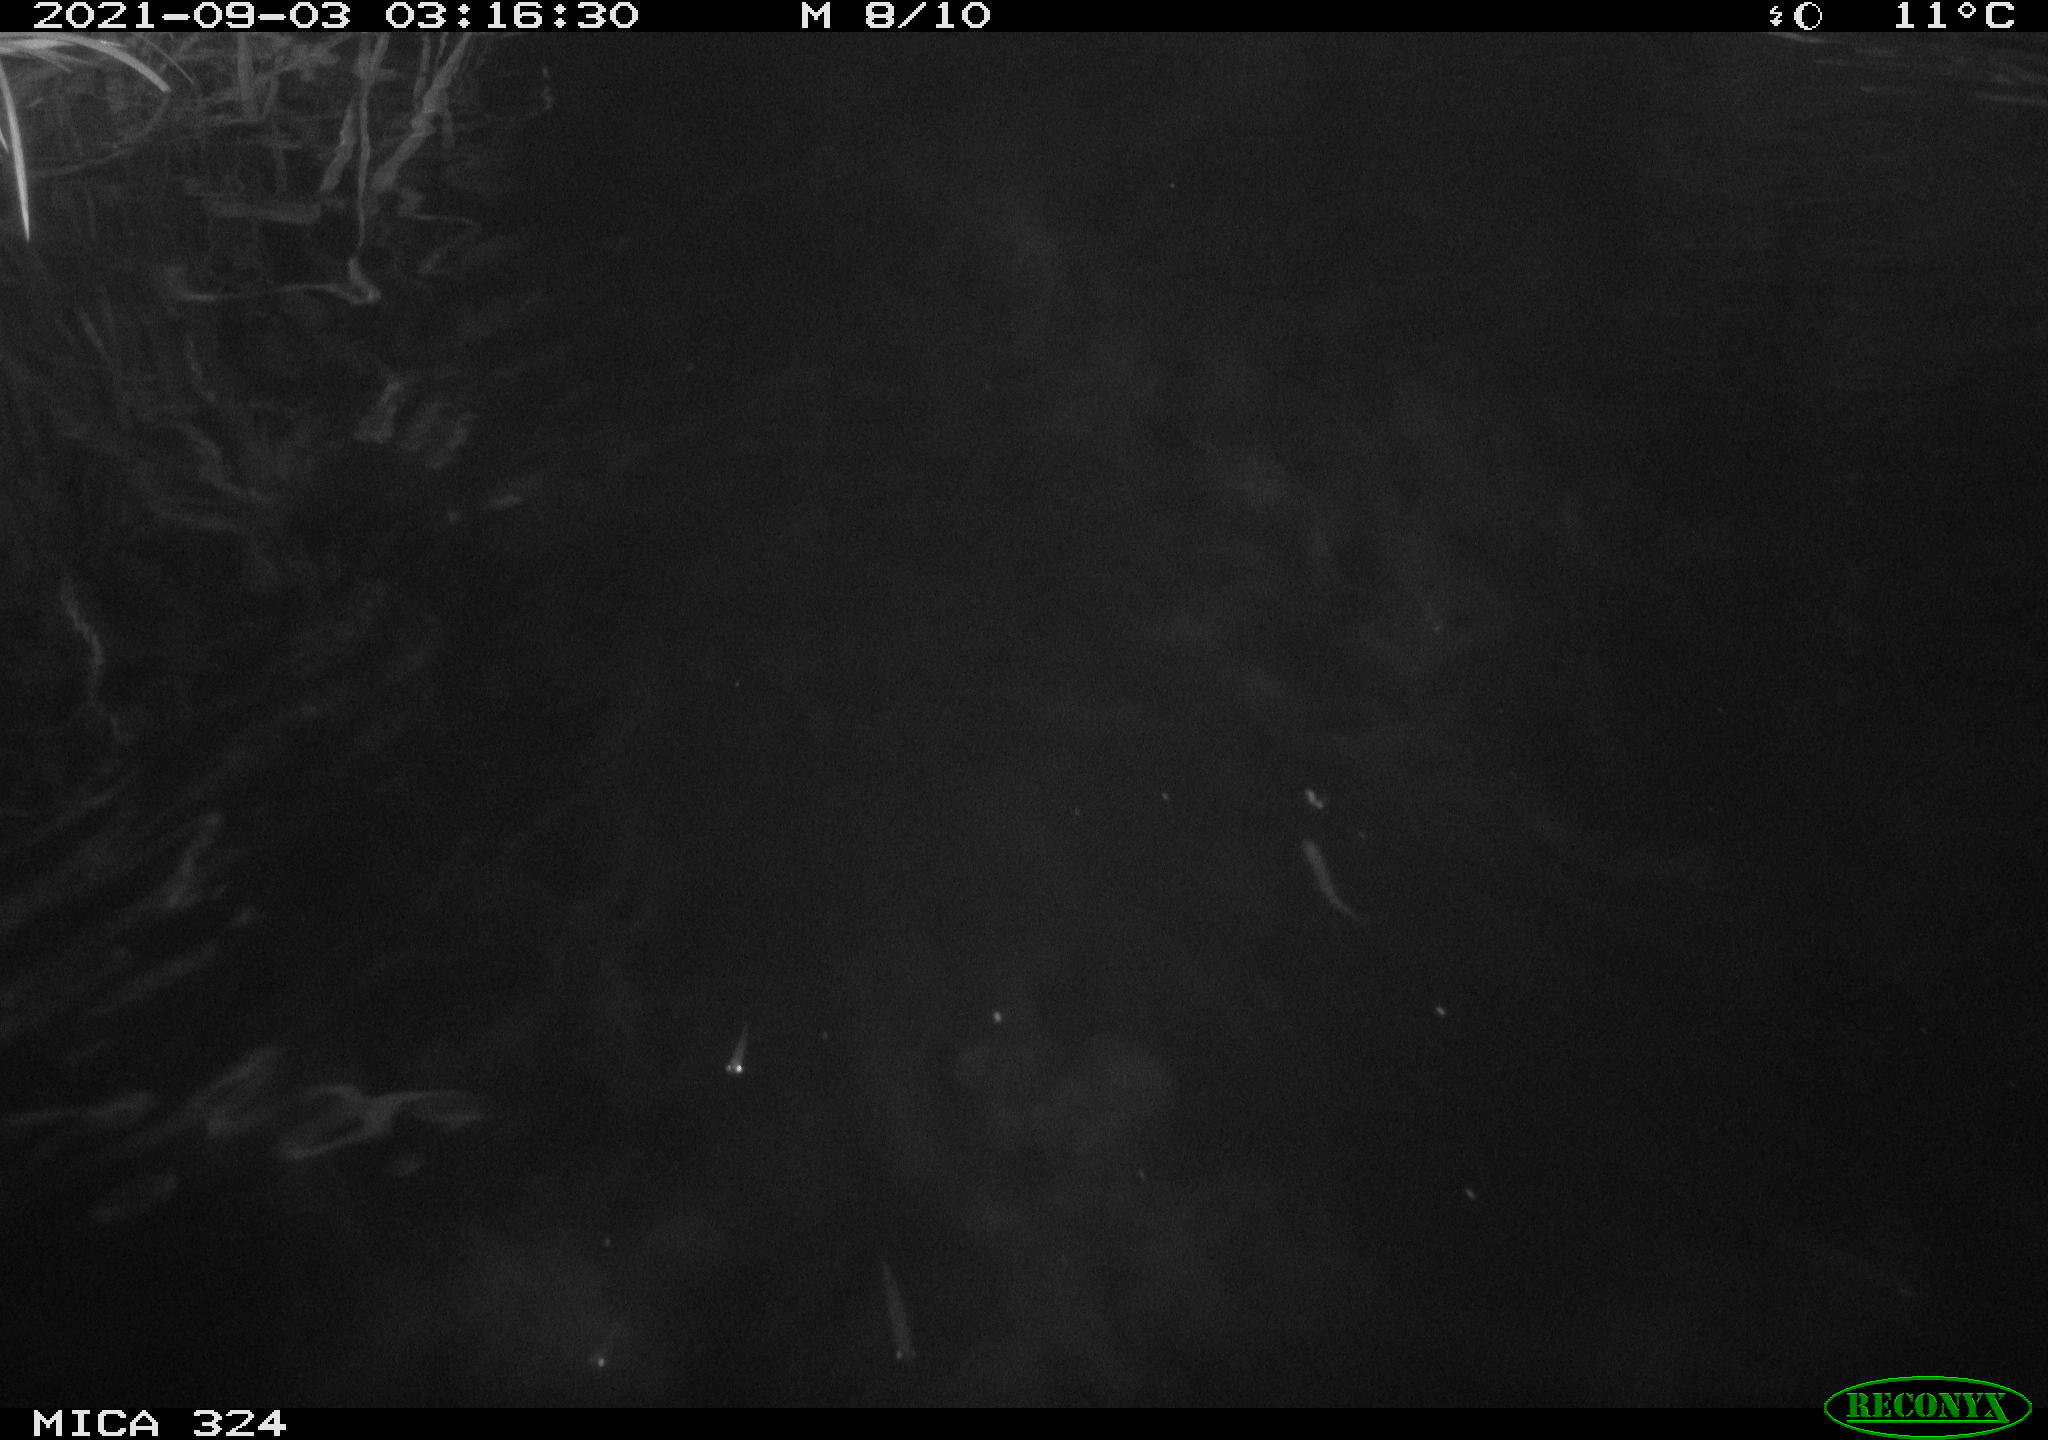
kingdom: Animalia
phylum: Chordata
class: Mammalia
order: Rodentia
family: Cricetidae
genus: Ondatra
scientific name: Ondatra zibethicus
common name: Muskrat
